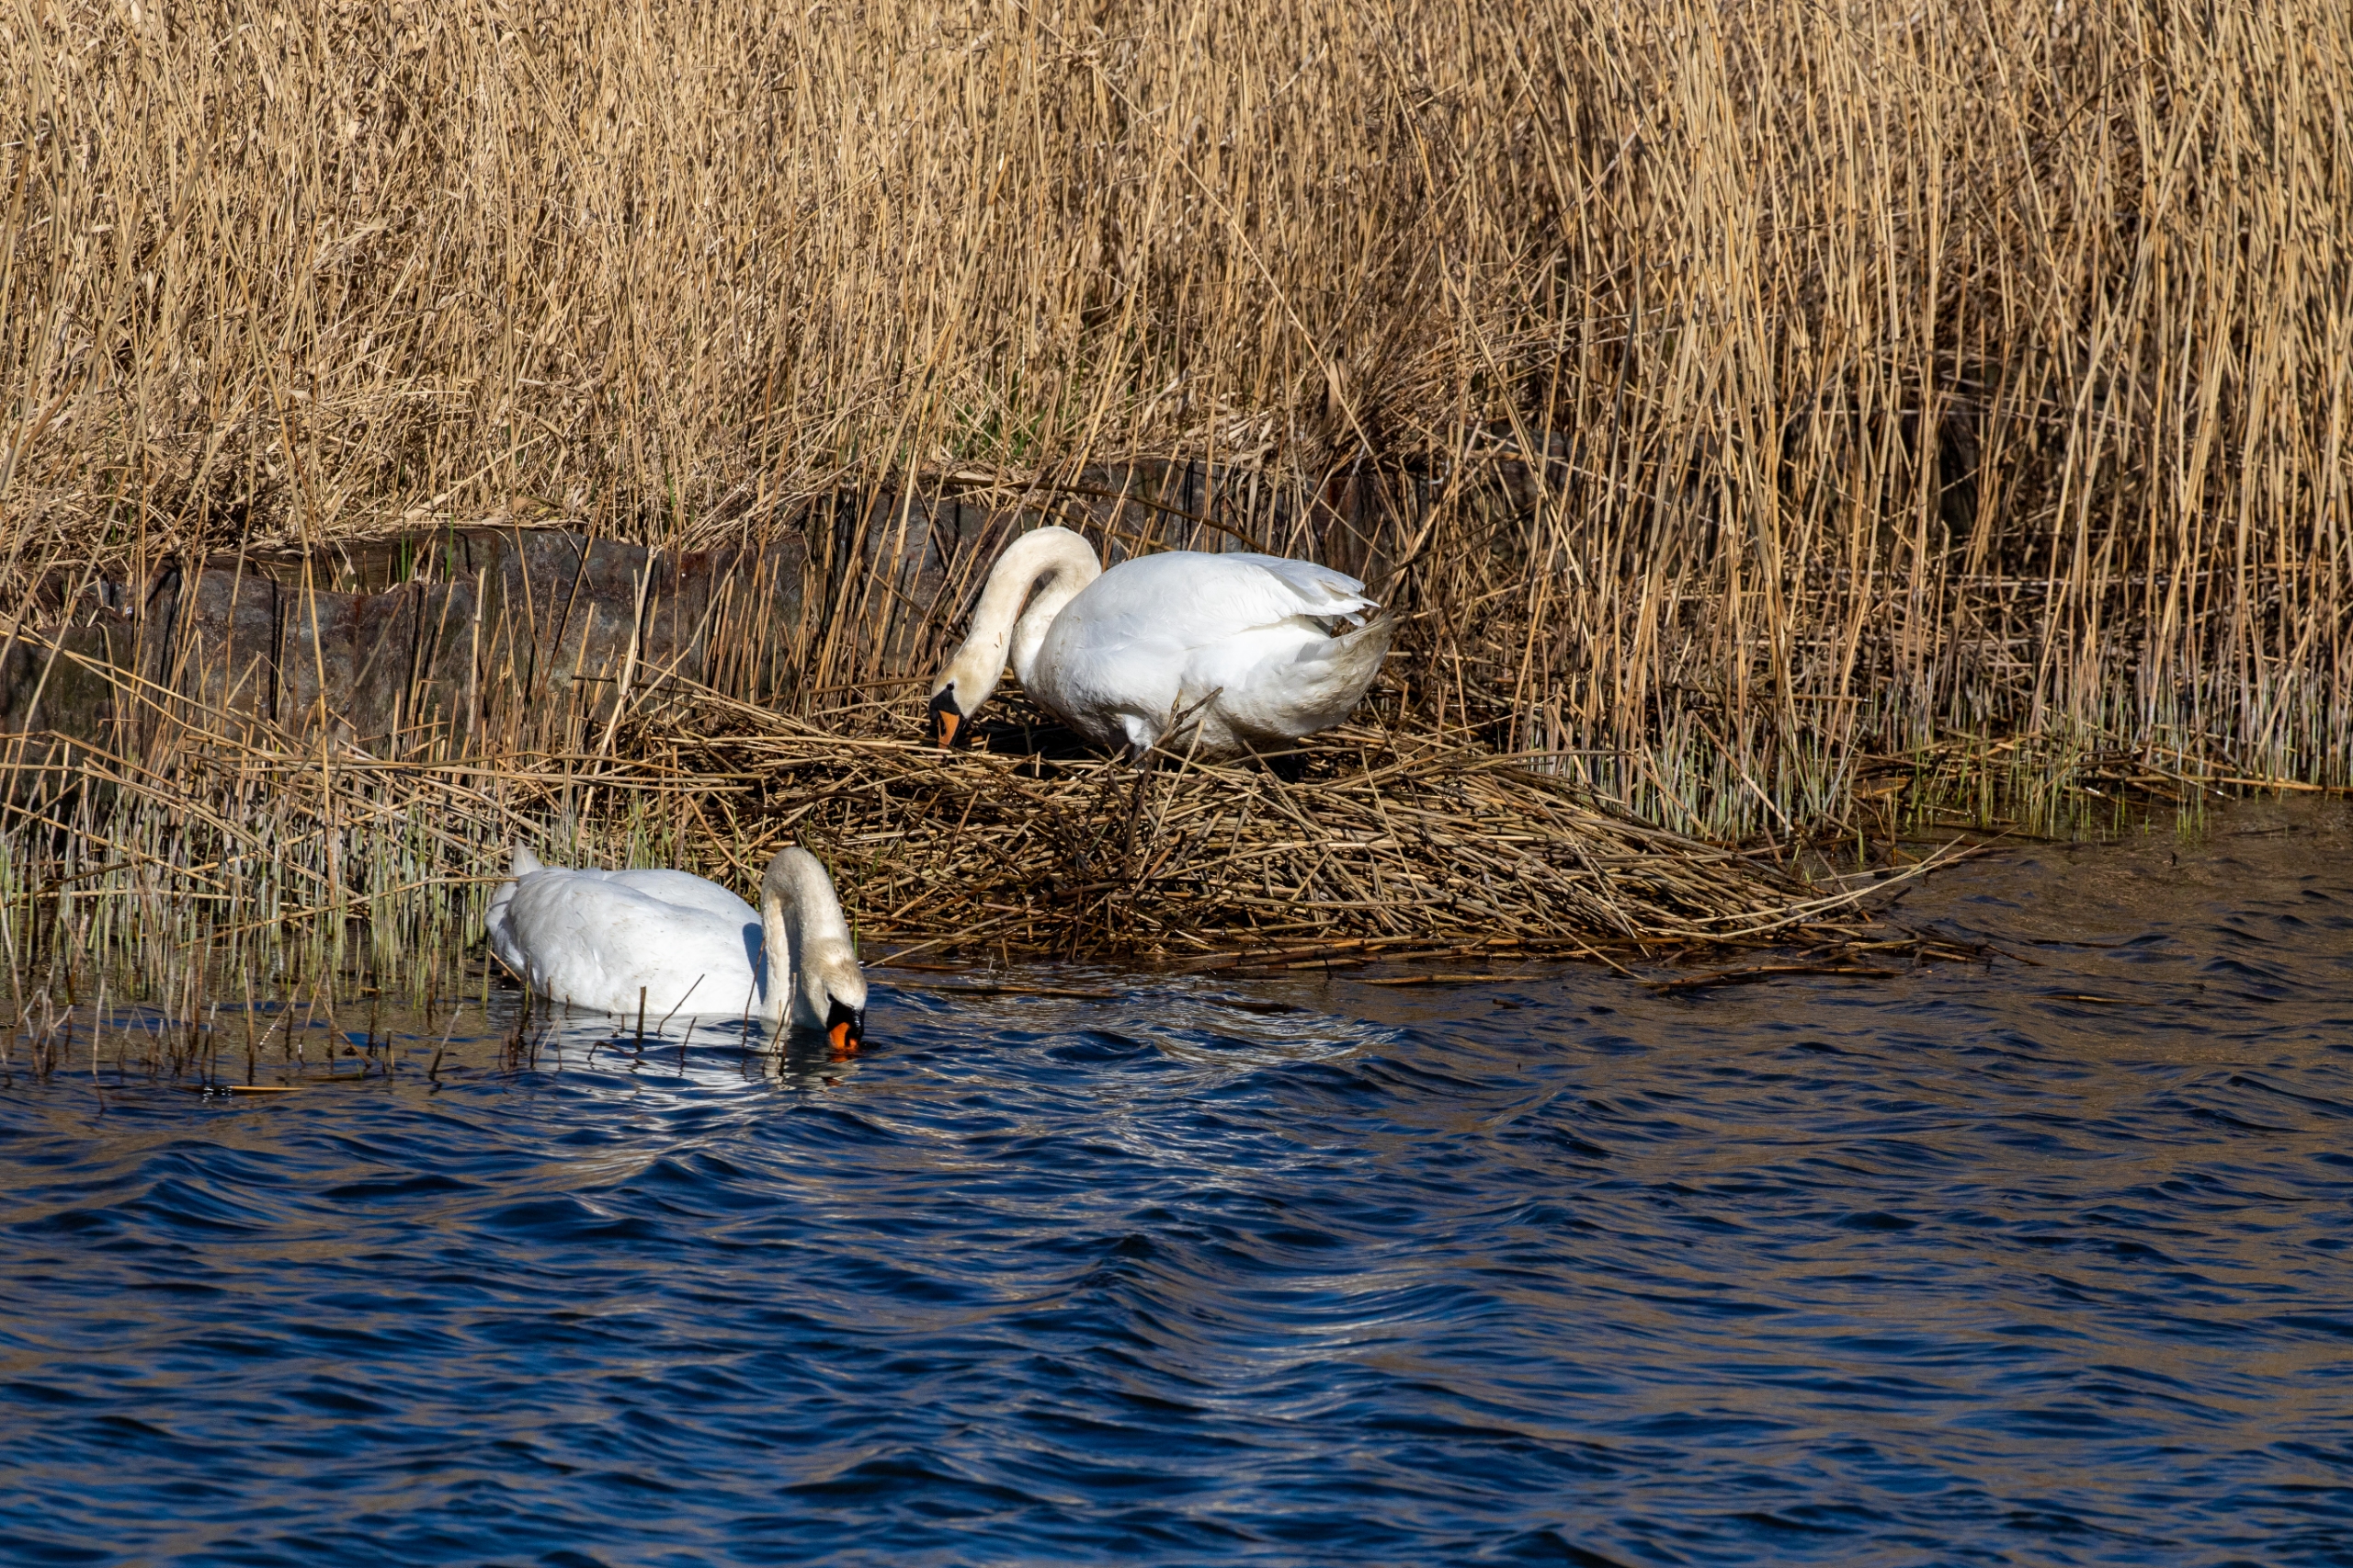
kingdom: Animalia
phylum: Chordata
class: Aves
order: Anseriformes
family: Anatidae
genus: Cygnus
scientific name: Cygnus olor
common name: Knopsvane
